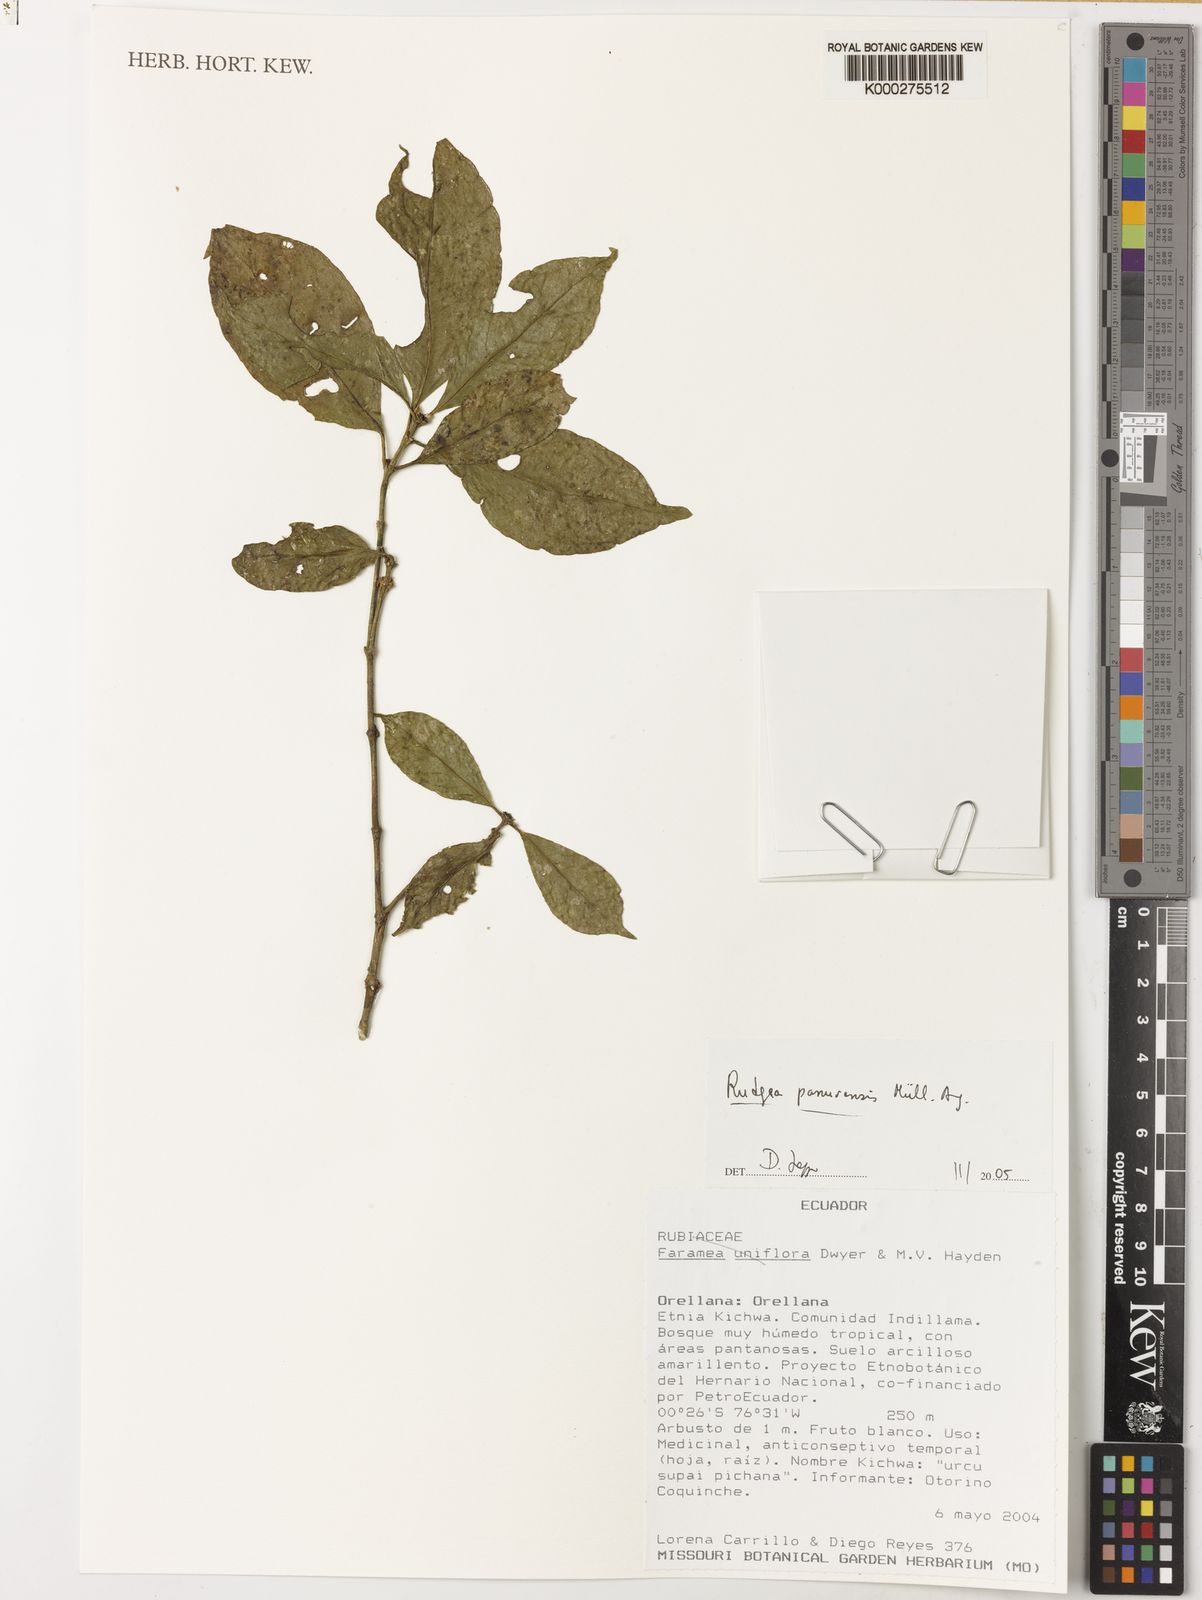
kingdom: Plantae
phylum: Tracheophyta
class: Magnoliopsida
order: Gentianales
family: Rubiaceae
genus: Rudgea
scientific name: Rudgea
